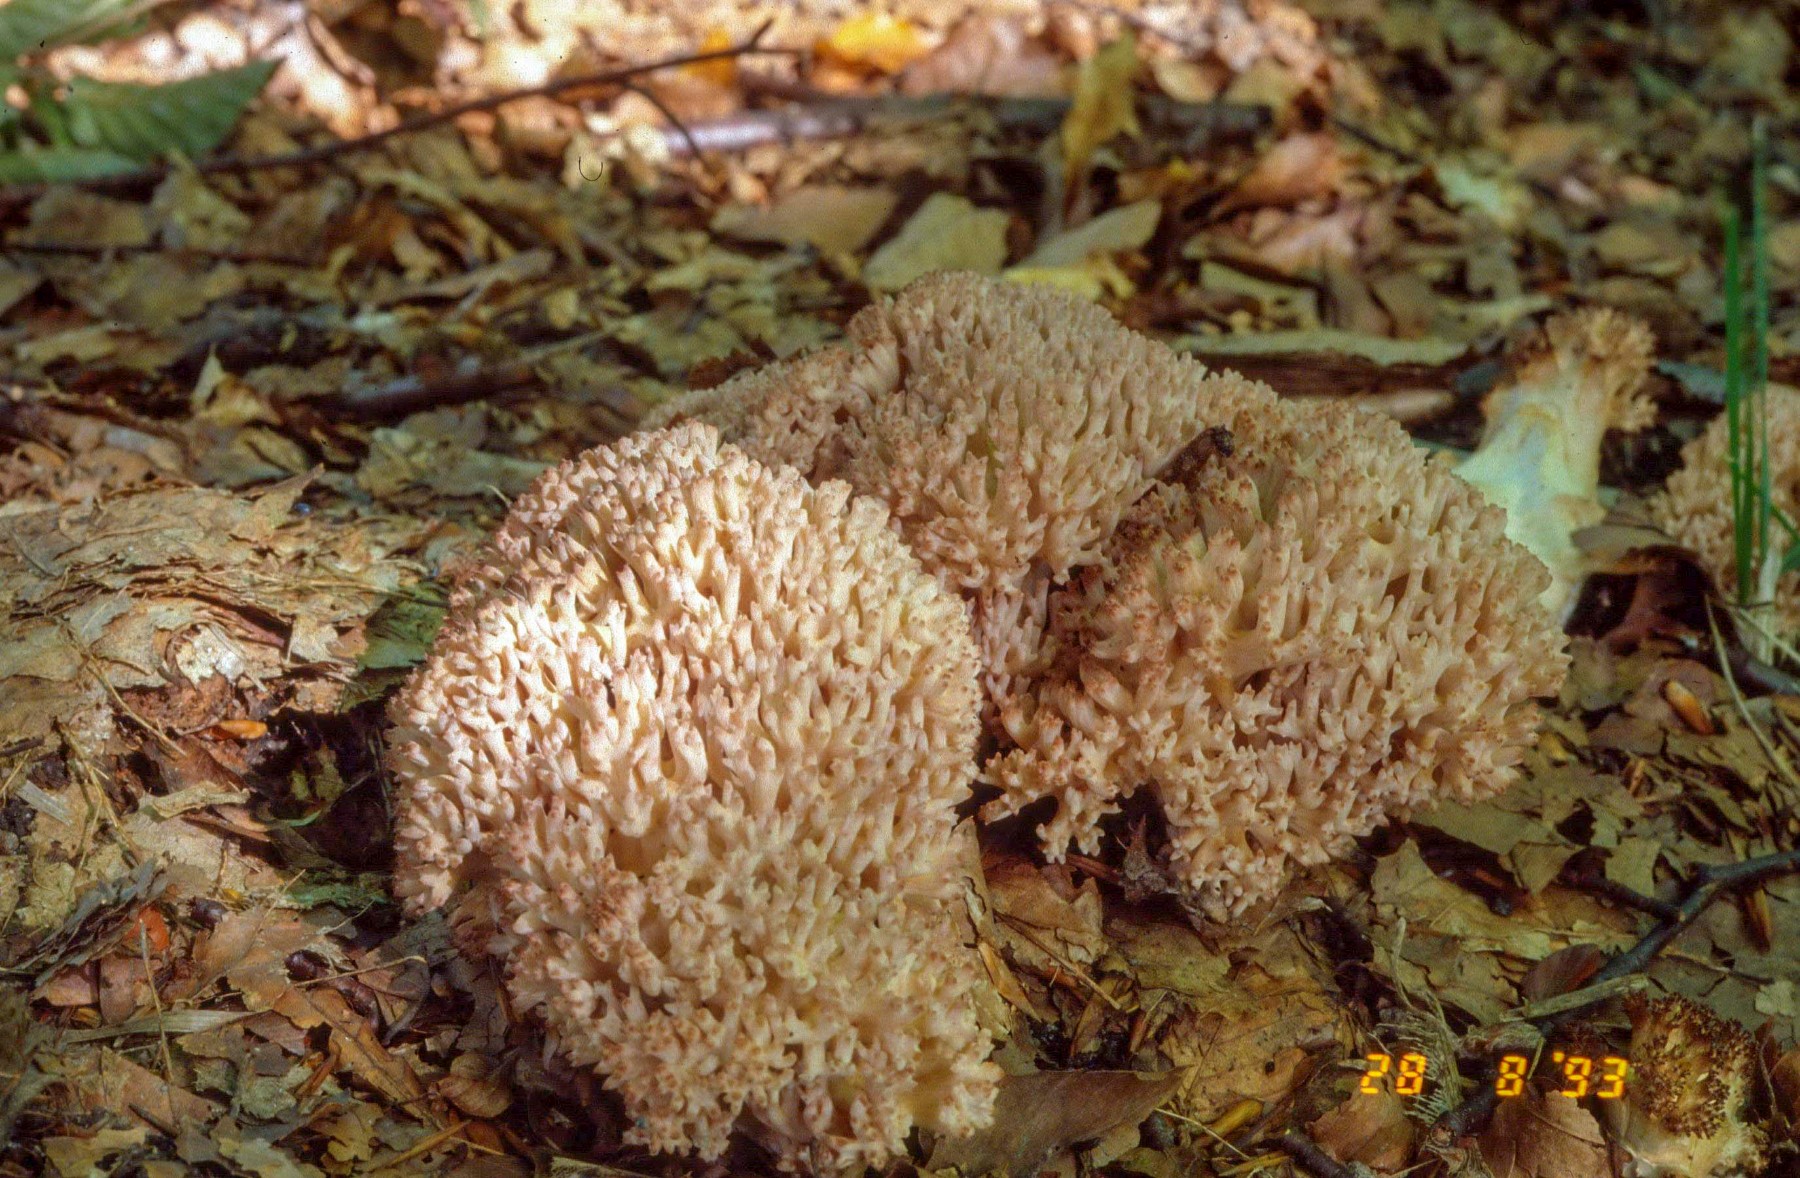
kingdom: Fungi
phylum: Basidiomycota
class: Agaricomycetes
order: Gomphales
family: Gomphaceae
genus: Ramaria
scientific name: Ramaria botrytis
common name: drue-koralsvamp
